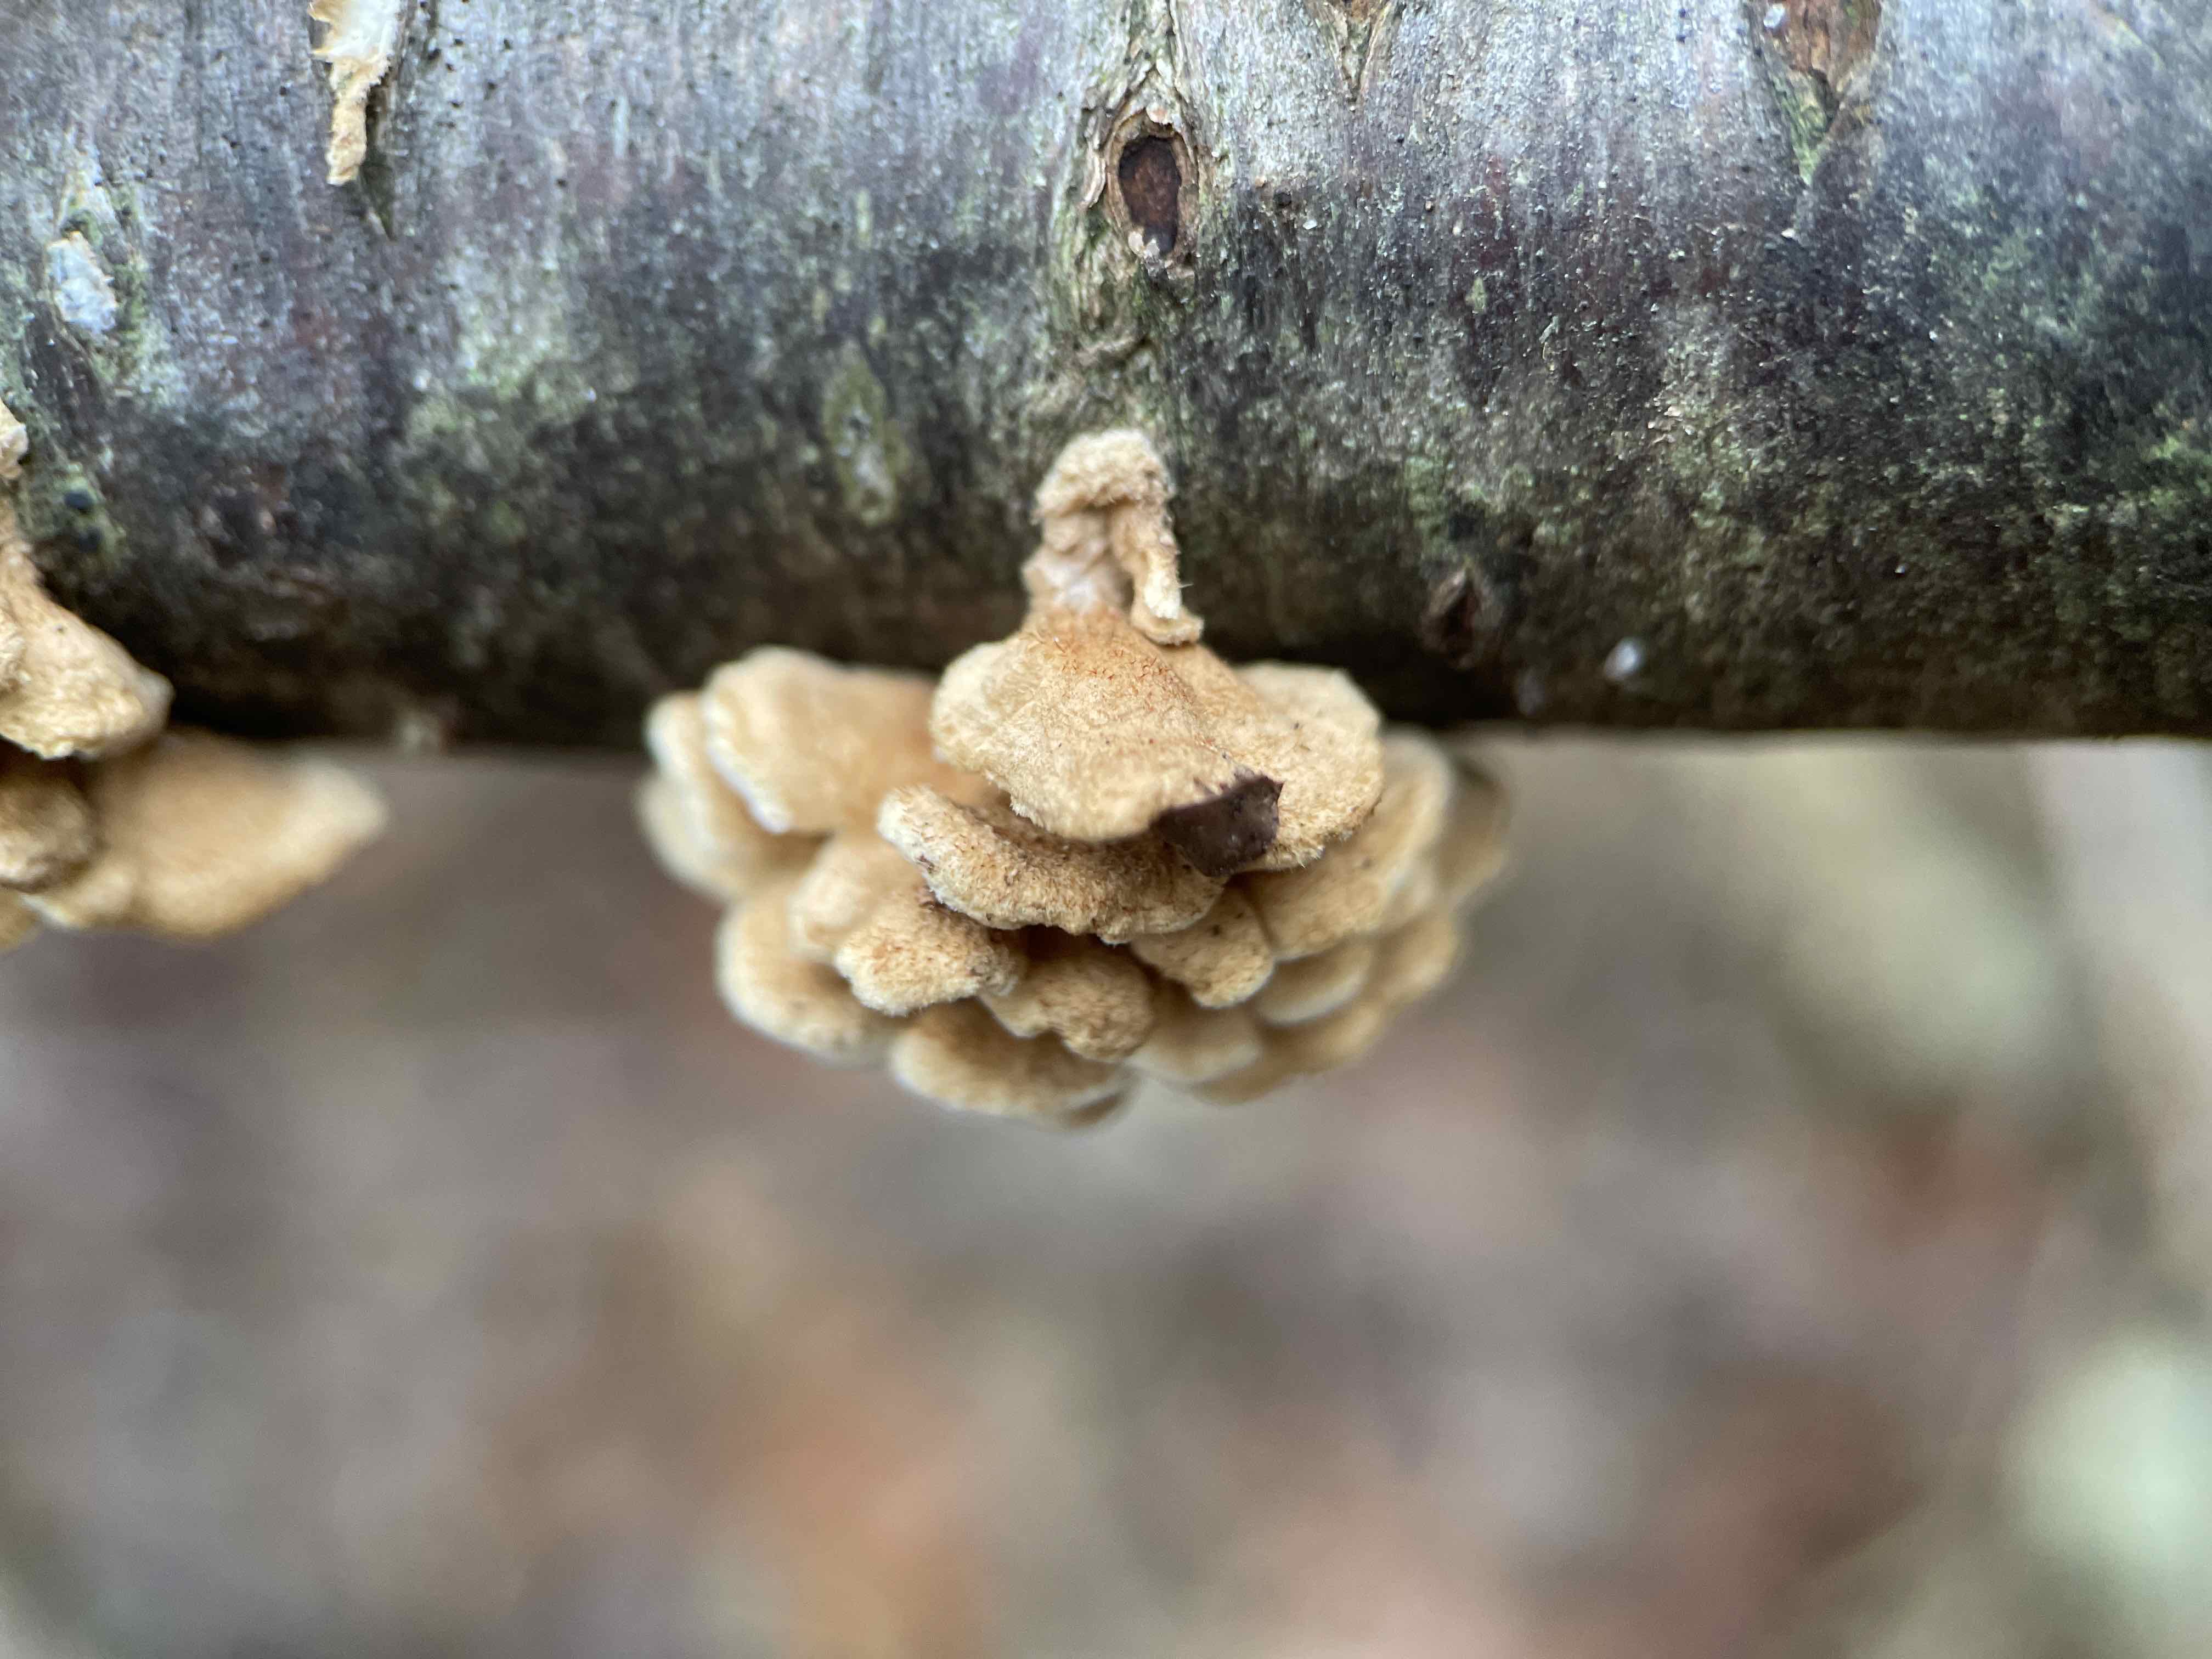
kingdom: Fungi
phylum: Basidiomycota
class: Agaricomycetes
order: Amylocorticiales
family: Amylocorticiaceae
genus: Plicaturopsis
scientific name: Plicaturopsis crispa
